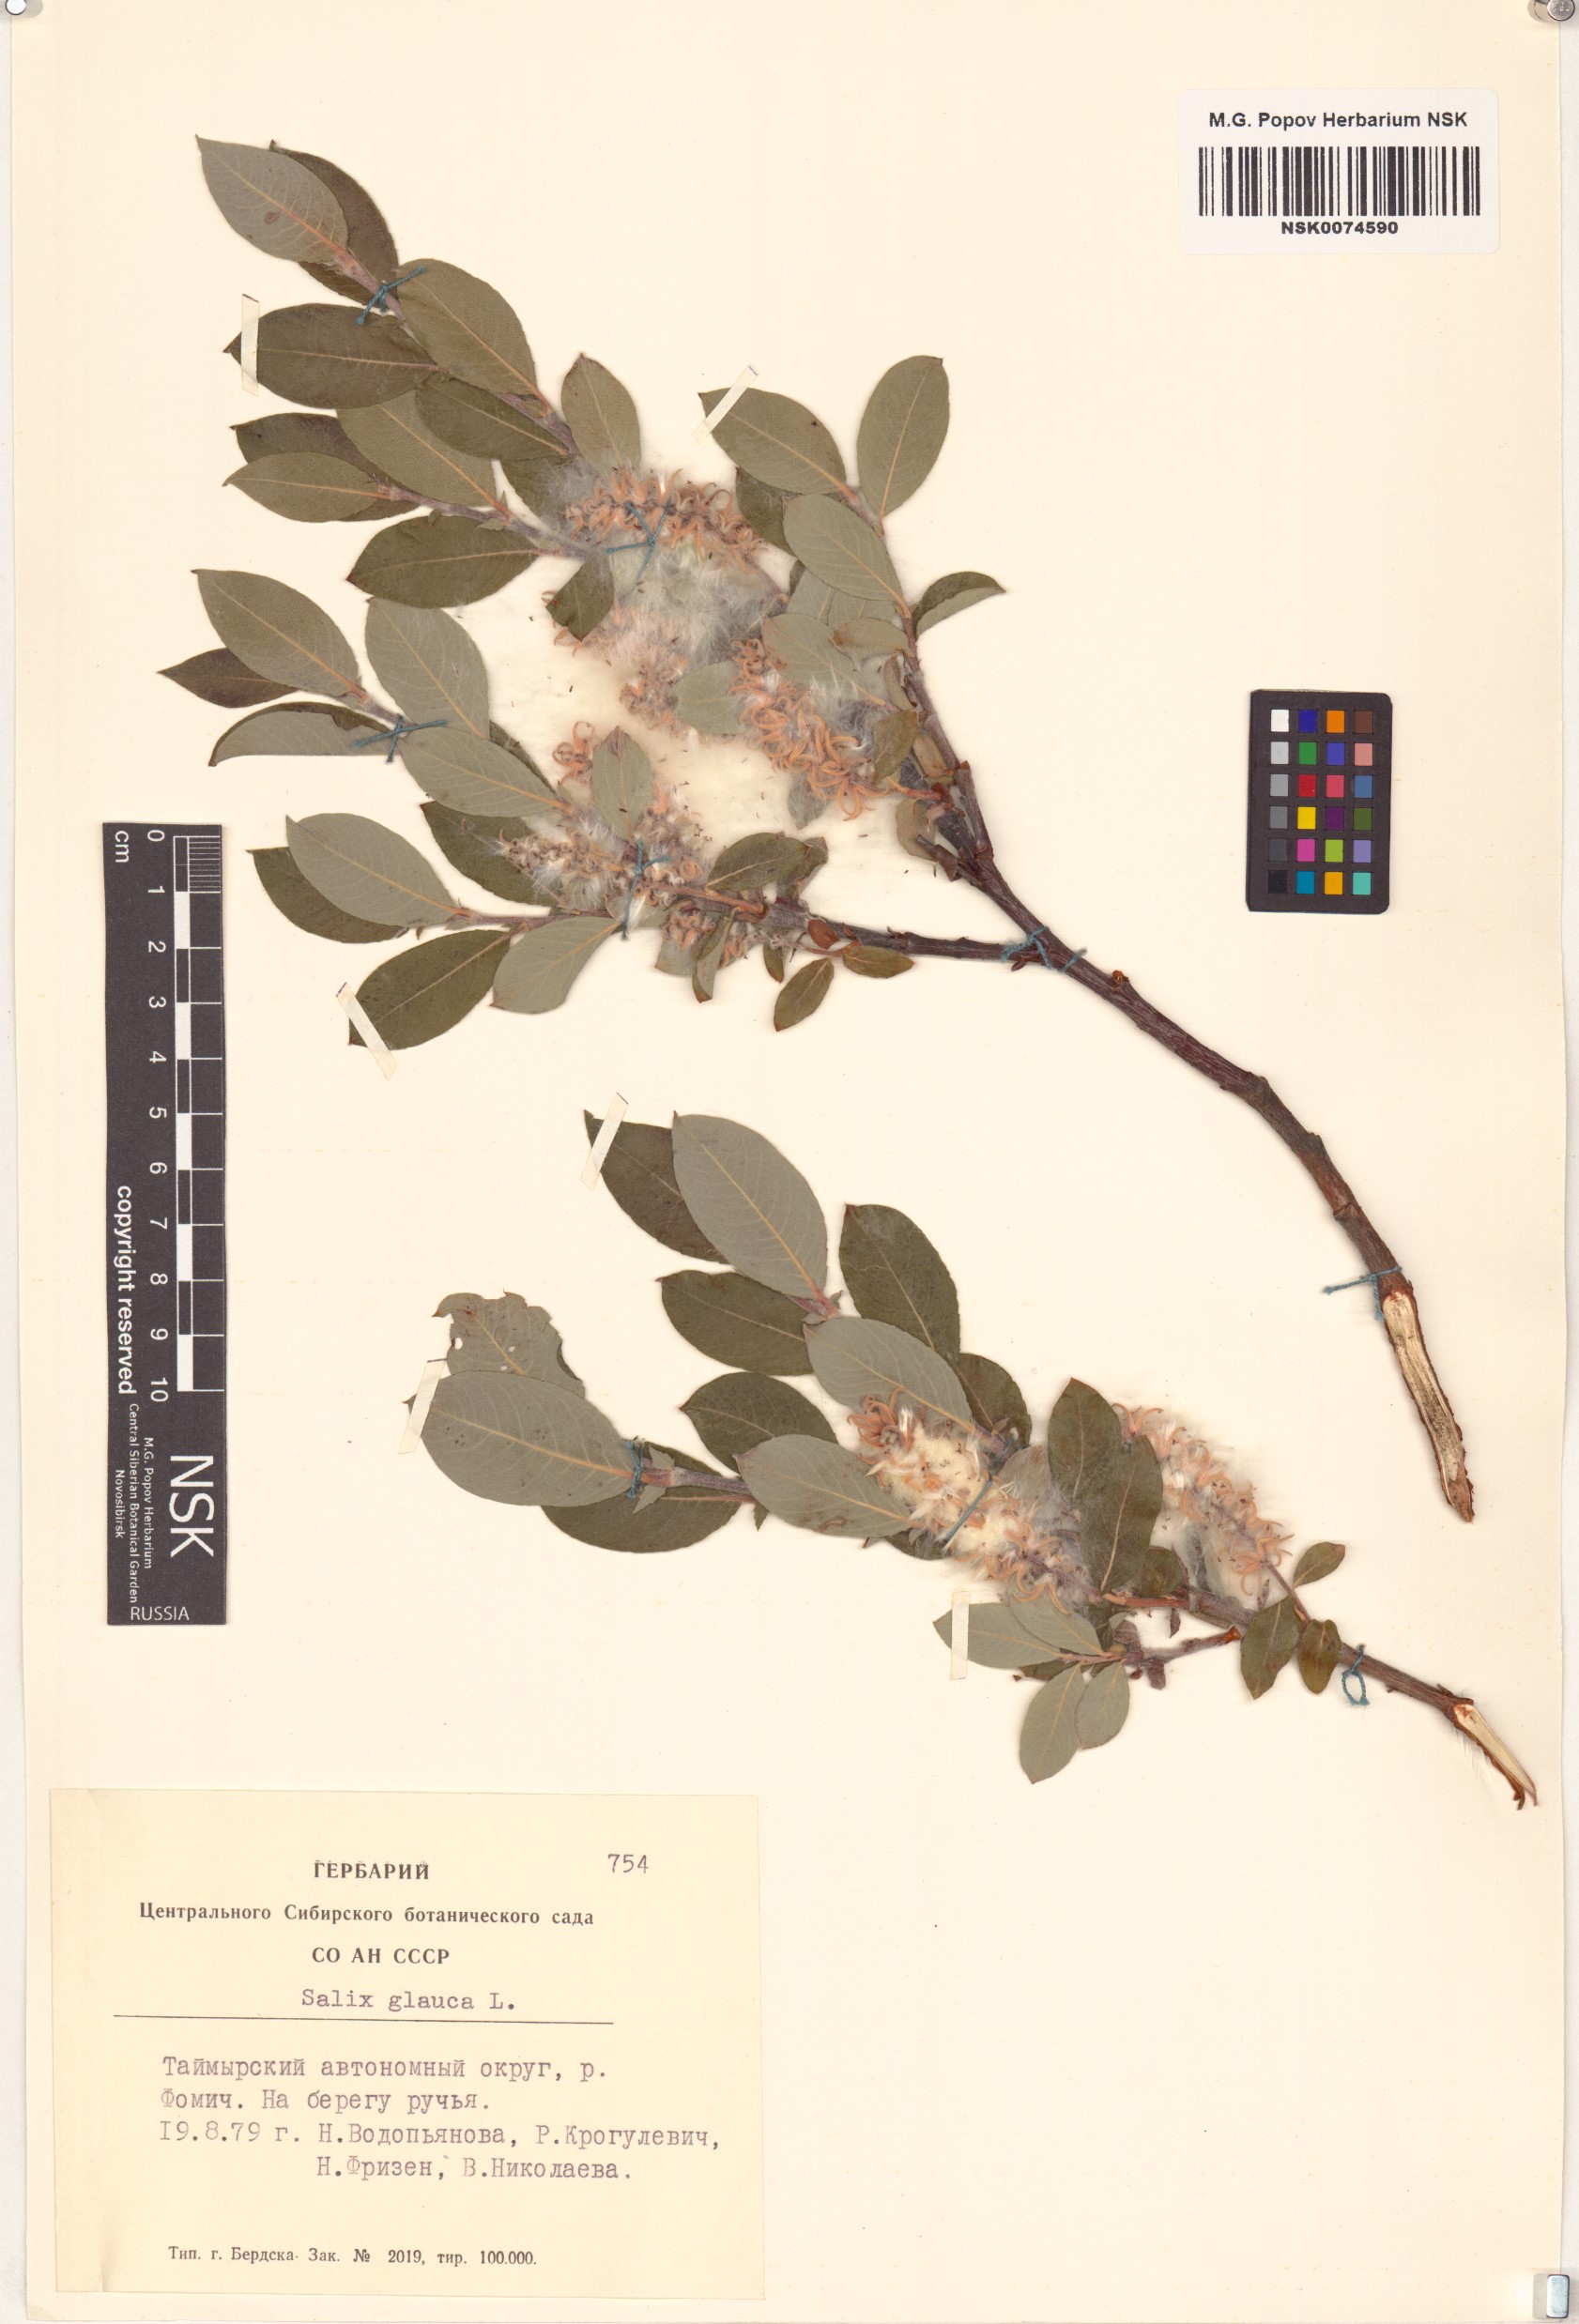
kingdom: Plantae
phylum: Tracheophyta
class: Magnoliopsida
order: Malpighiales
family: Salicaceae
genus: Salix
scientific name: Salix glauca
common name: Glaucous willow
